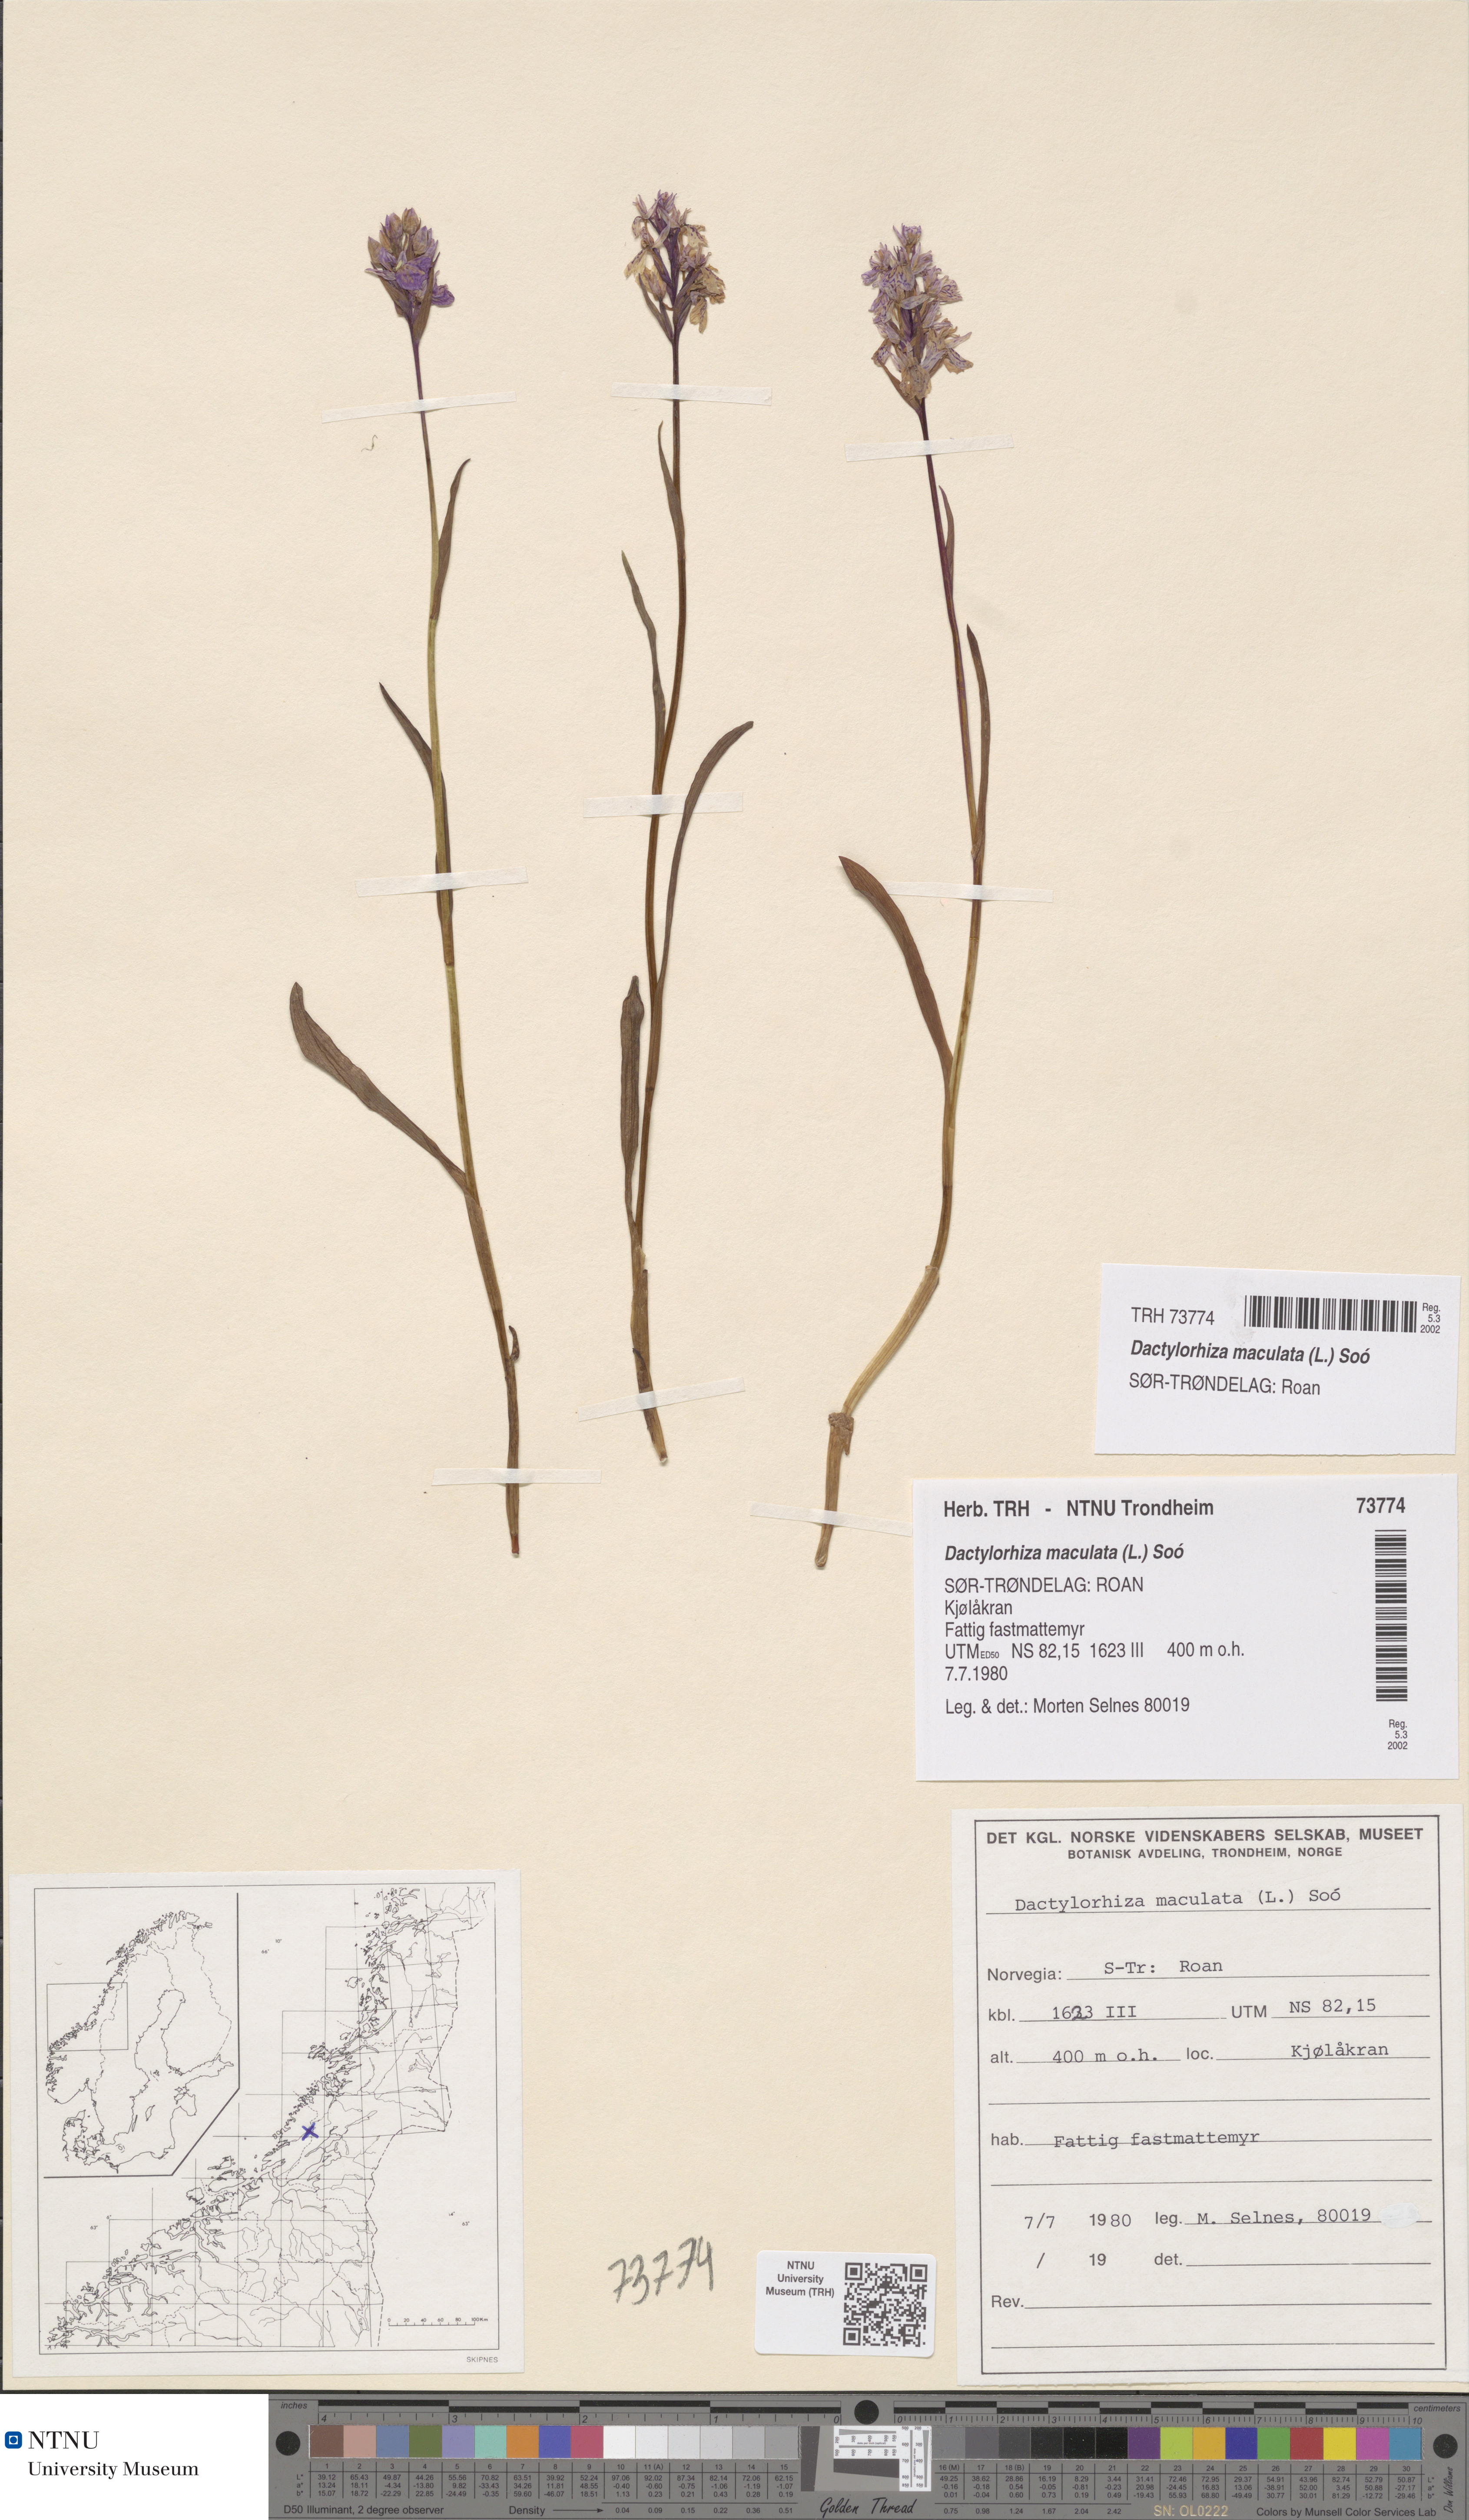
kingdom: Plantae
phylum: Tracheophyta
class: Liliopsida
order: Asparagales
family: Orchidaceae
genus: Dactylorhiza
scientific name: Dactylorhiza maculata
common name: Heath spotted-orchid
